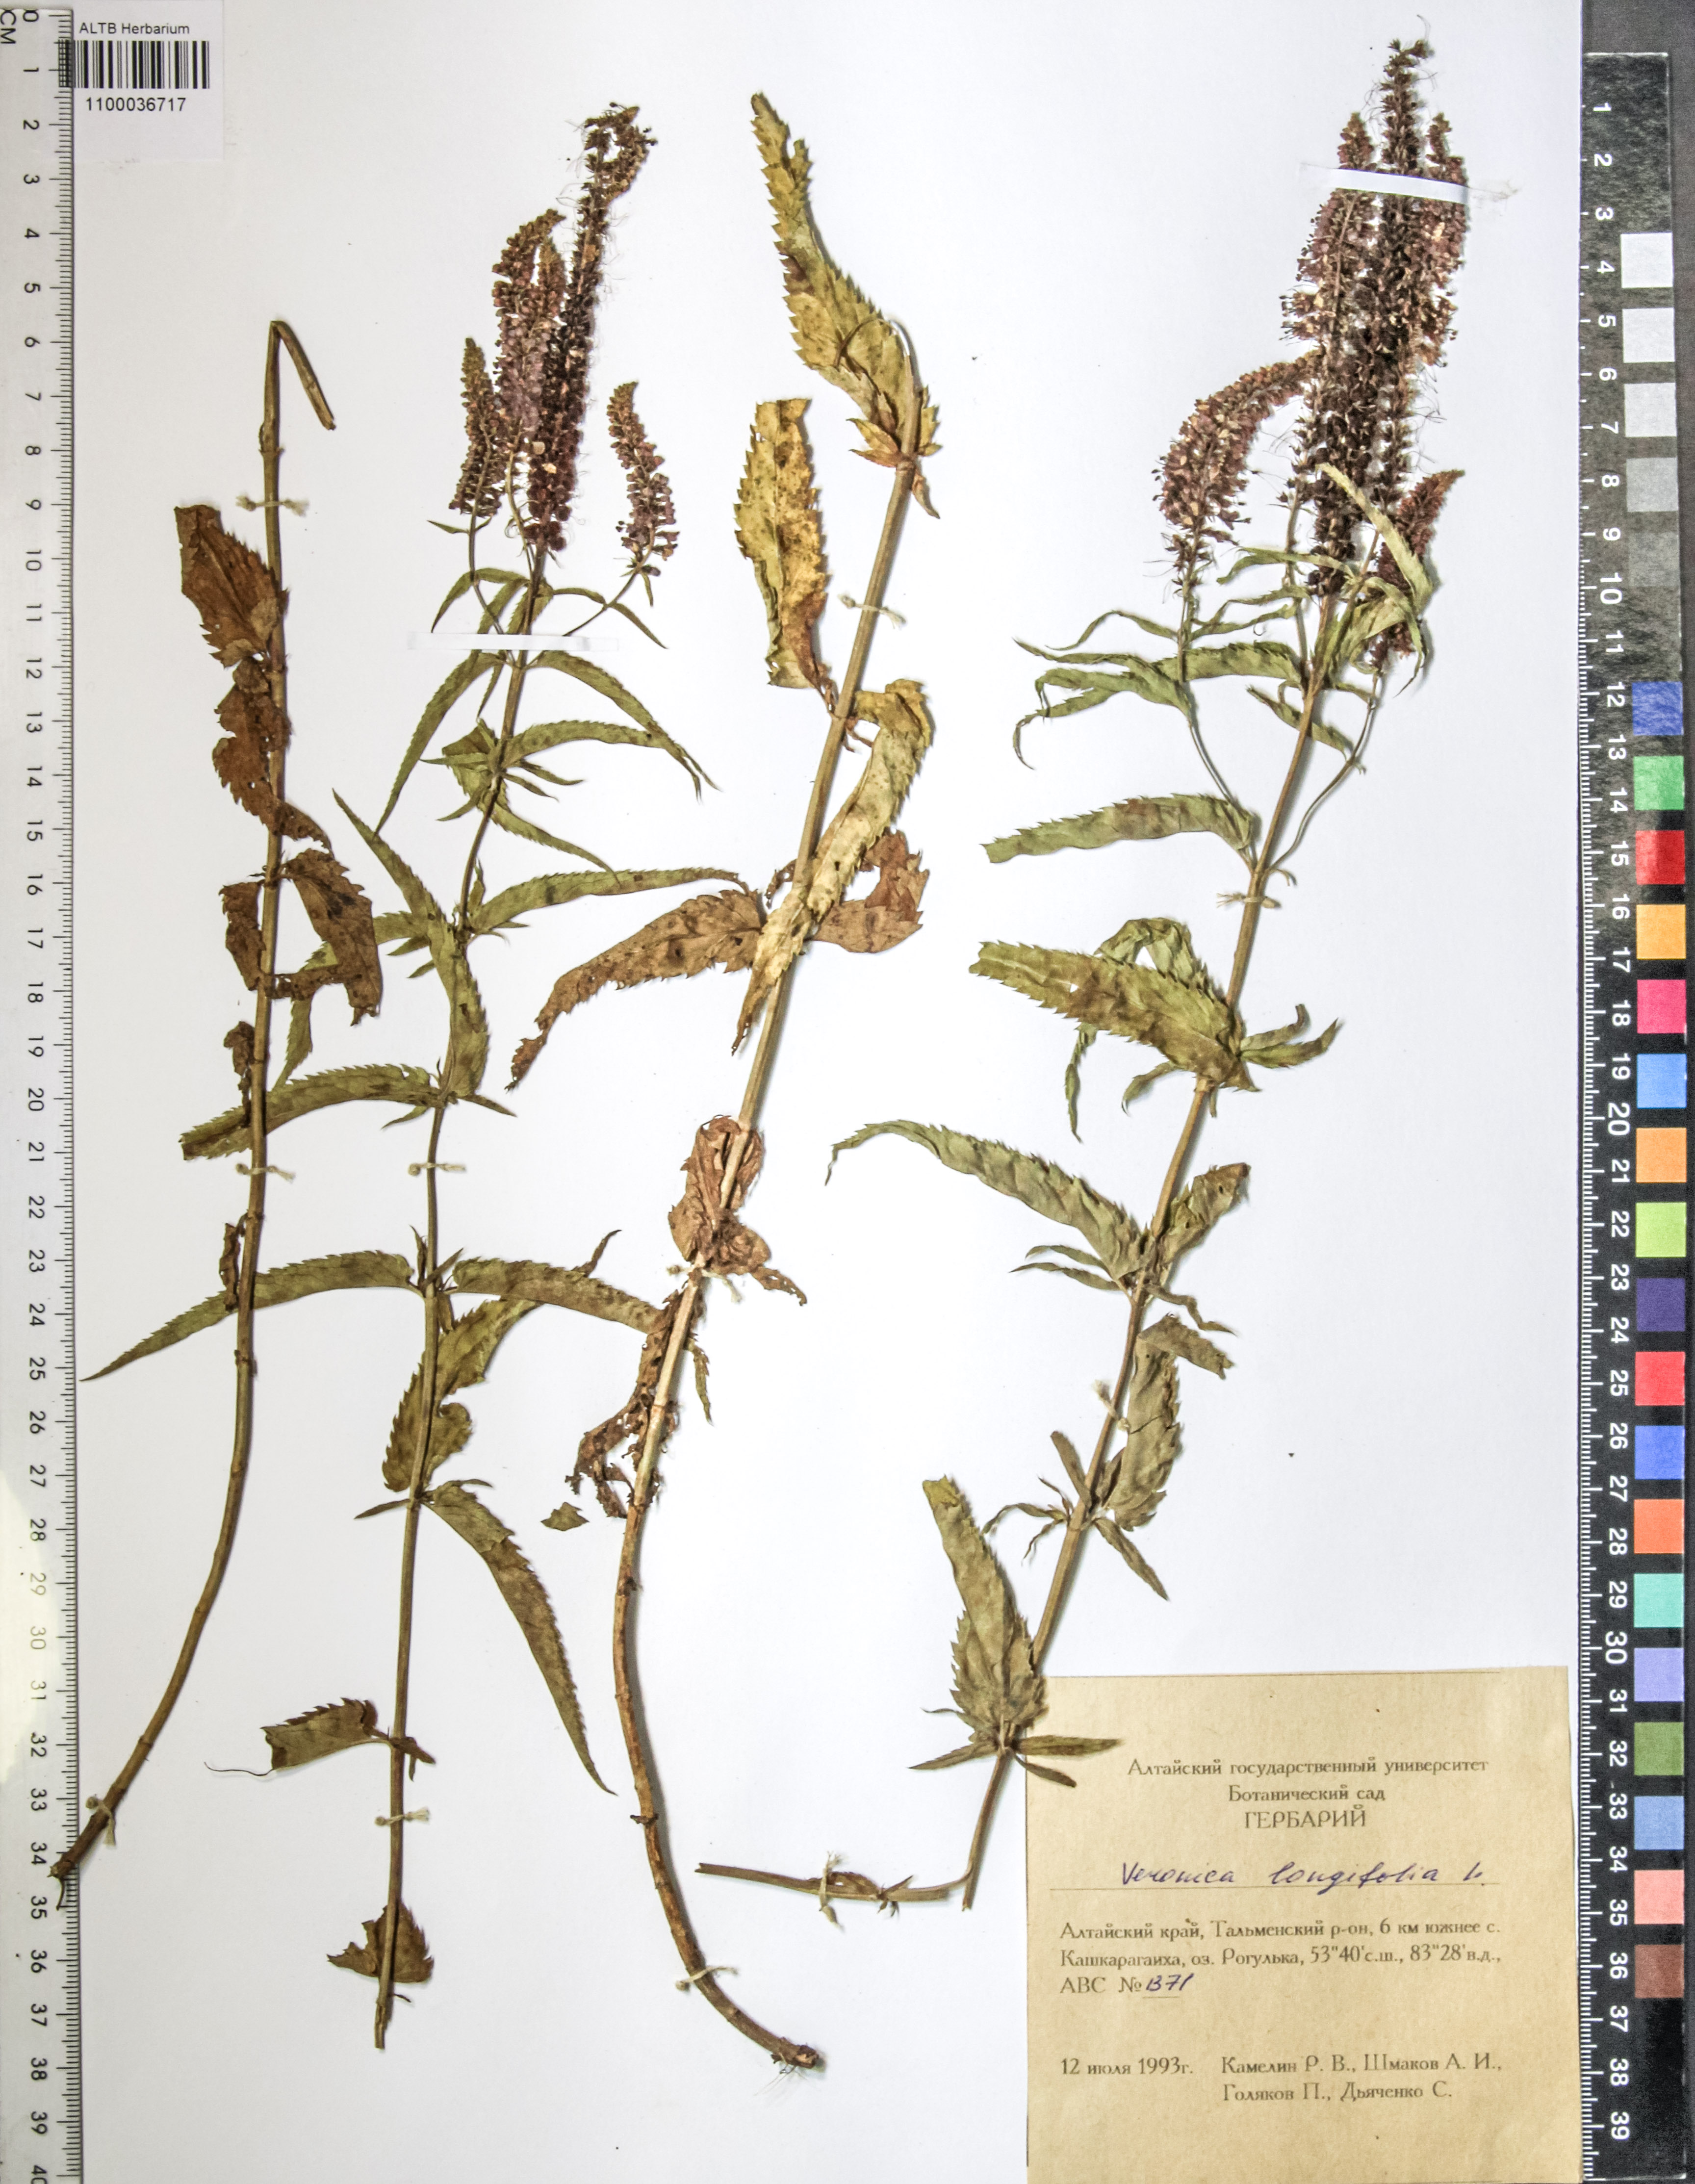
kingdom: Plantae
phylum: Tracheophyta
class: Magnoliopsida
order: Lamiales
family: Plantaginaceae
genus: Veronica
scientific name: Veronica longifolia
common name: Garden speedwell
